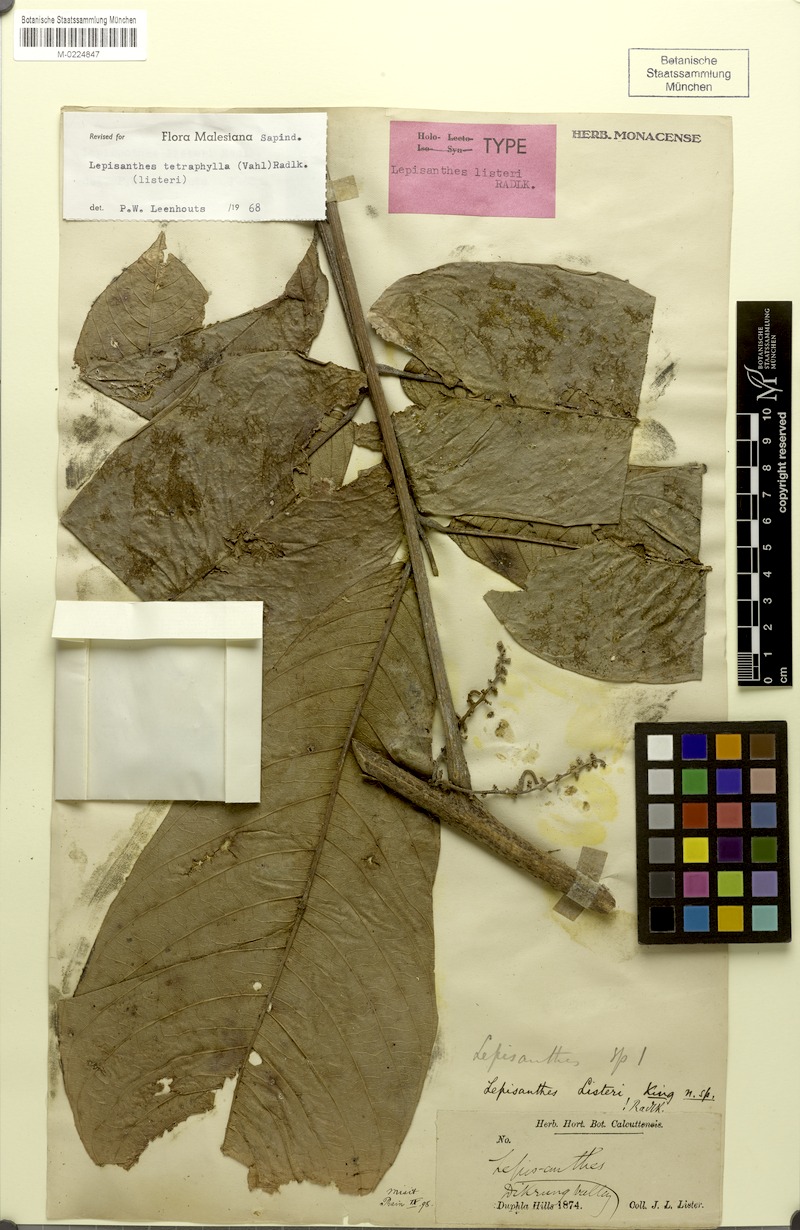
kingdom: Plantae
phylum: Tracheophyta
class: Magnoliopsida
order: Sapindales
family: Sapindaceae
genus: Lepisanthes
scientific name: Lepisanthes tetraphylla
